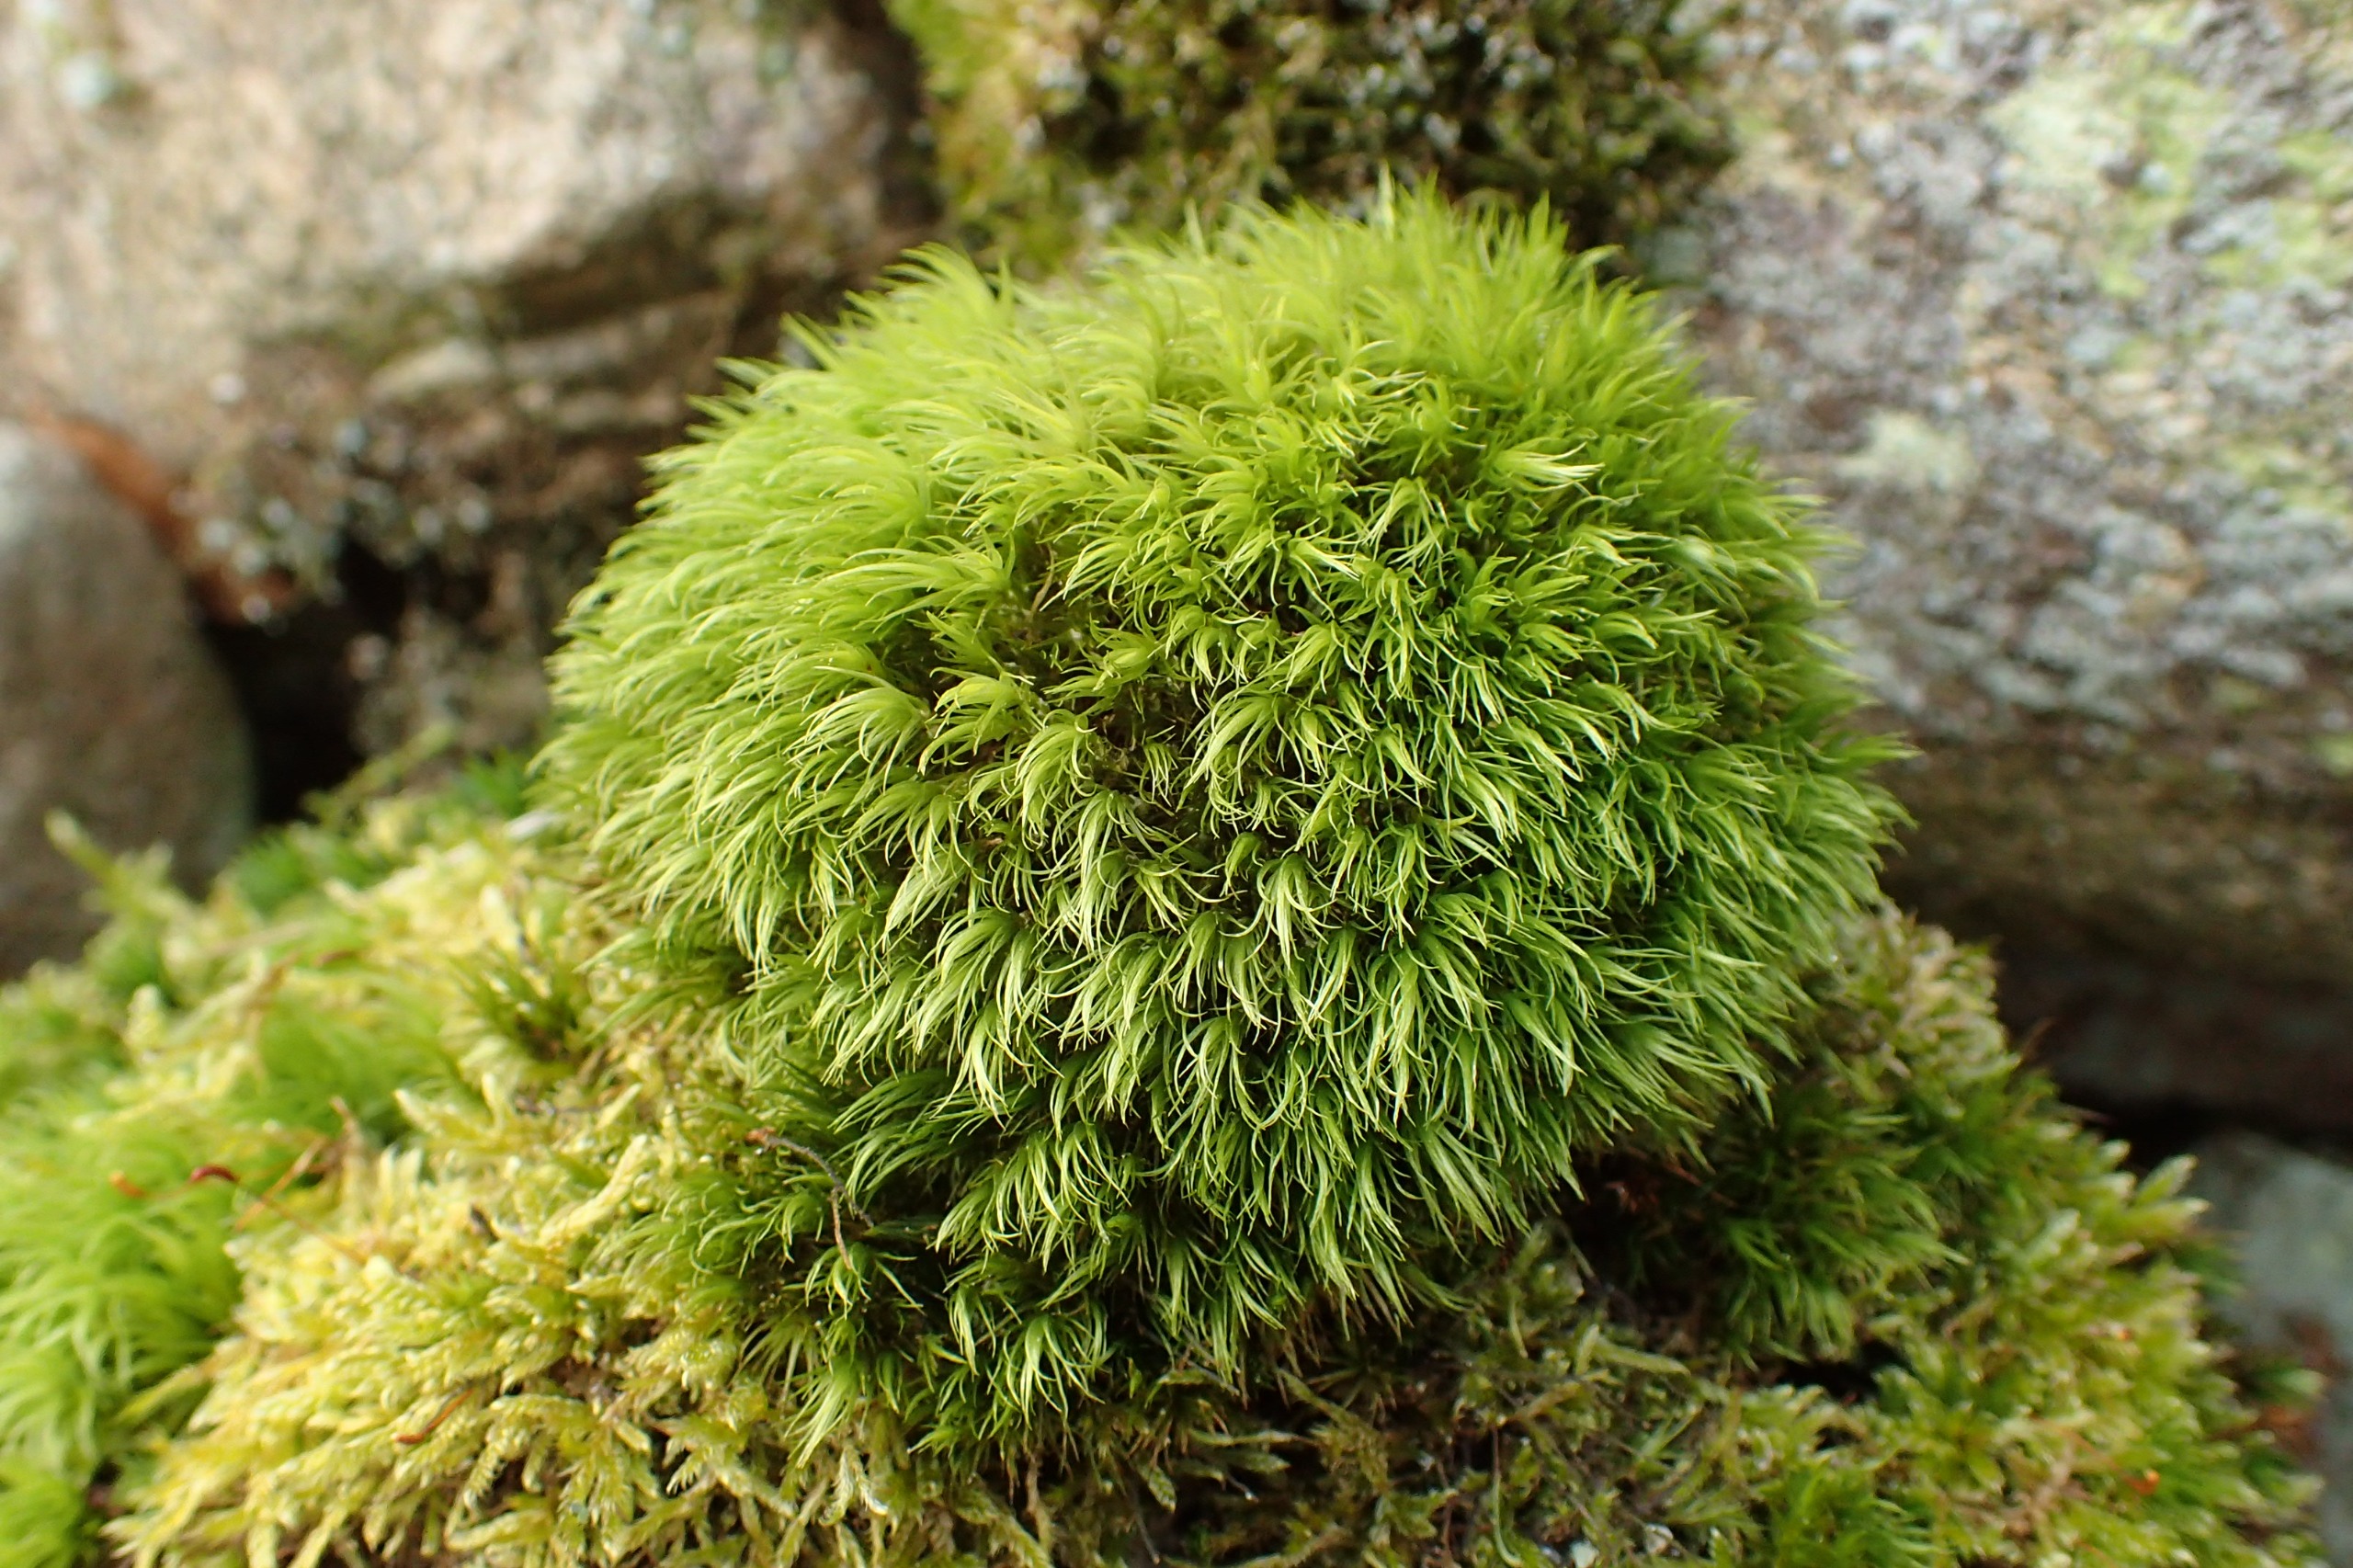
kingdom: Plantae
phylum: Bryophyta
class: Bryopsida
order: Dicranales
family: Dicranaceae
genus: Dicranum
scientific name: Dicranum scoparium
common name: Almindelig kløvtand
